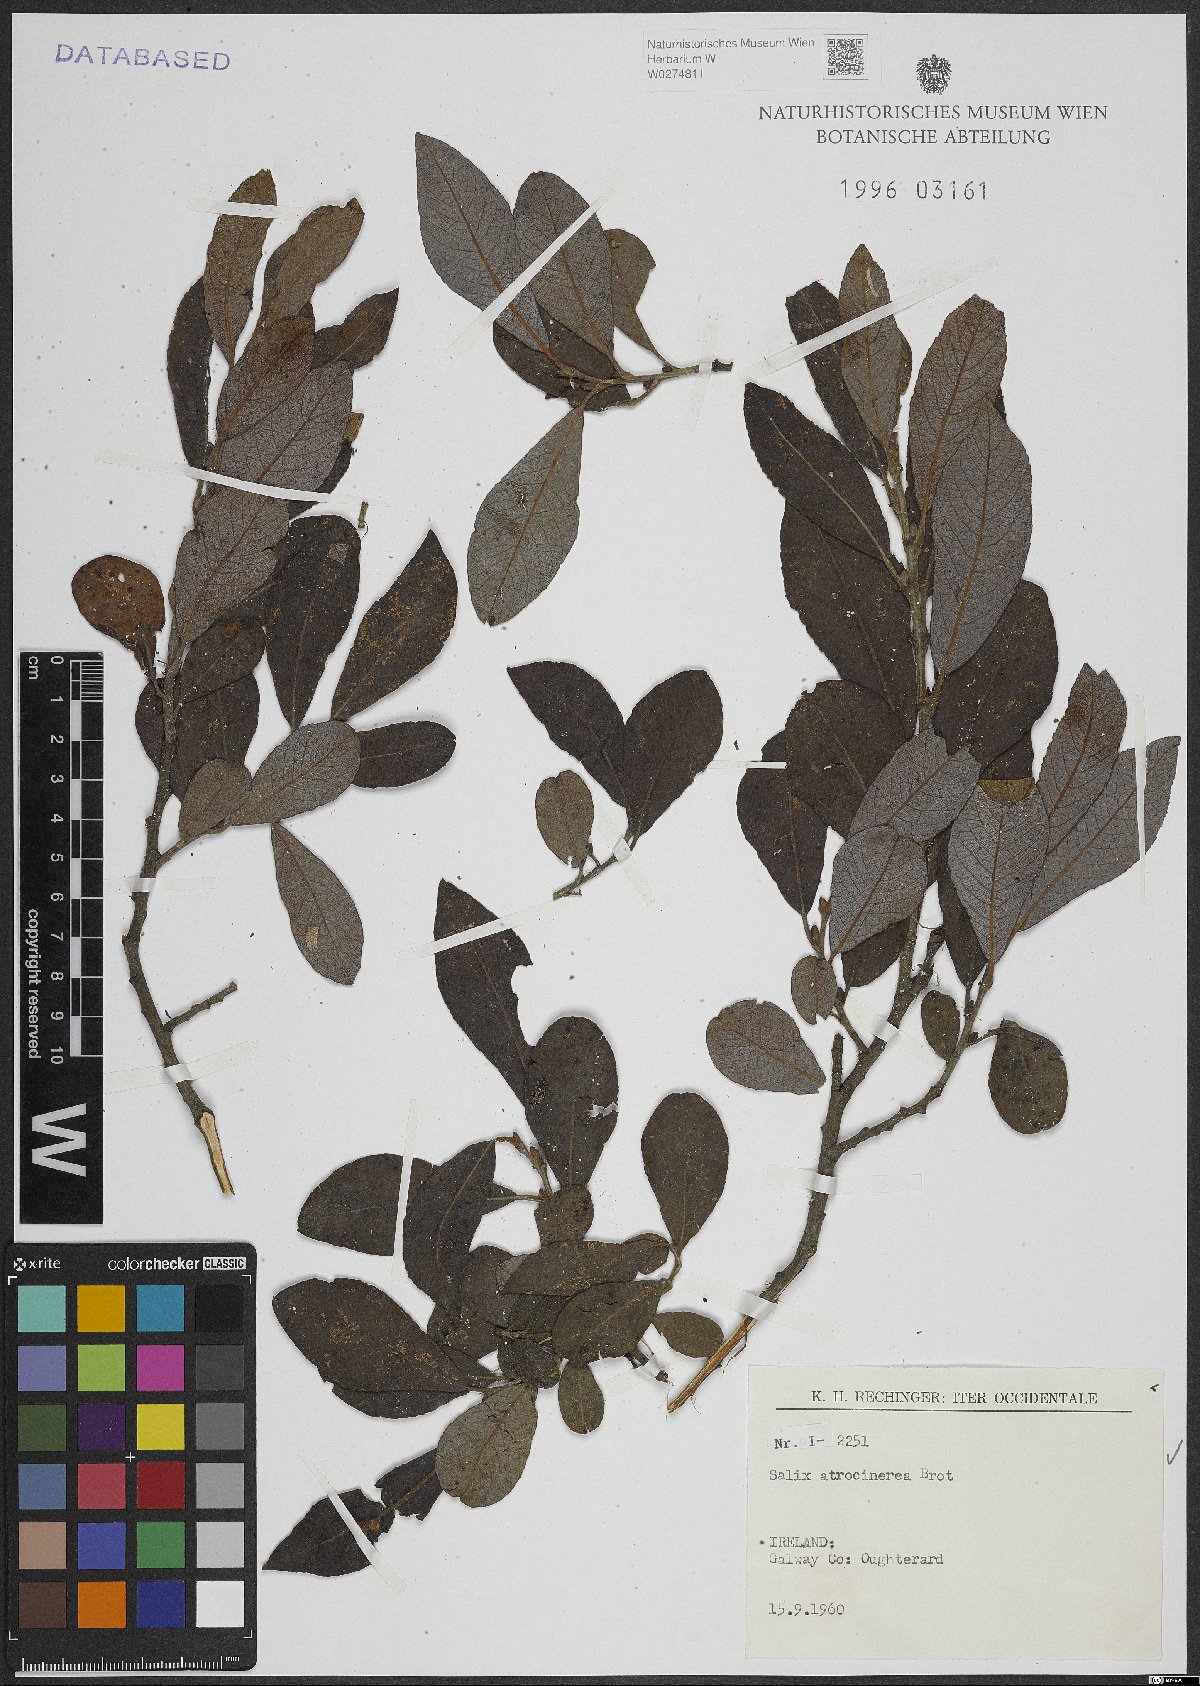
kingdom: Plantae
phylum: Tracheophyta
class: Magnoliopsida
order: Malpighiales
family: Salicaceae
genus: Salix
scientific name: Salix atrocinerea
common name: Rusty willow
